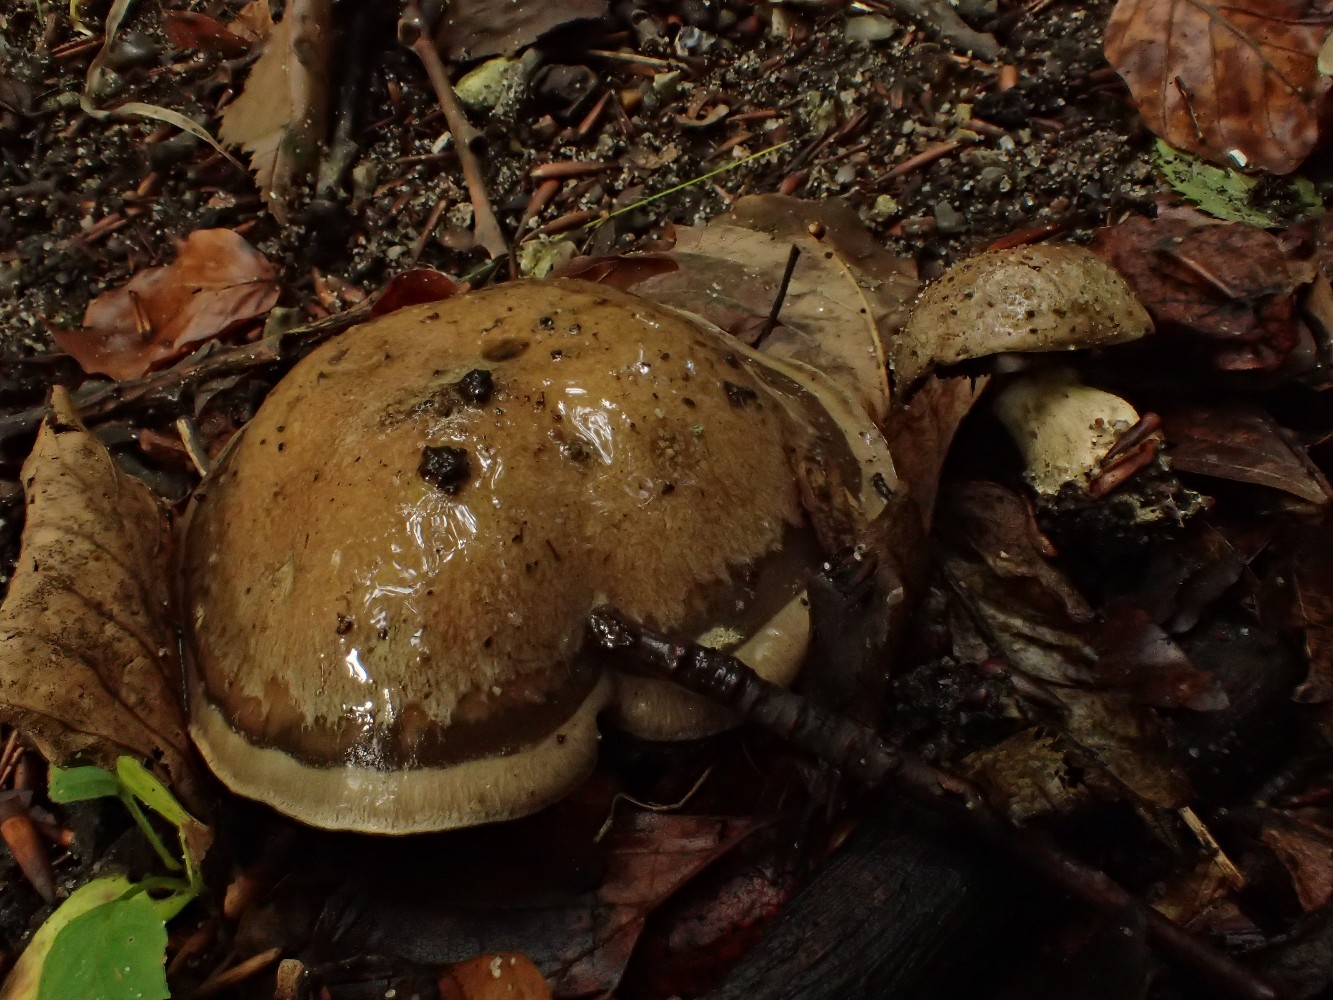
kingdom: Fungi
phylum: Basidiomycota
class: Agaricomycetes
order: Agaricales
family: Cortinariaceae
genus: Cortinarius
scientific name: Cortinarius
